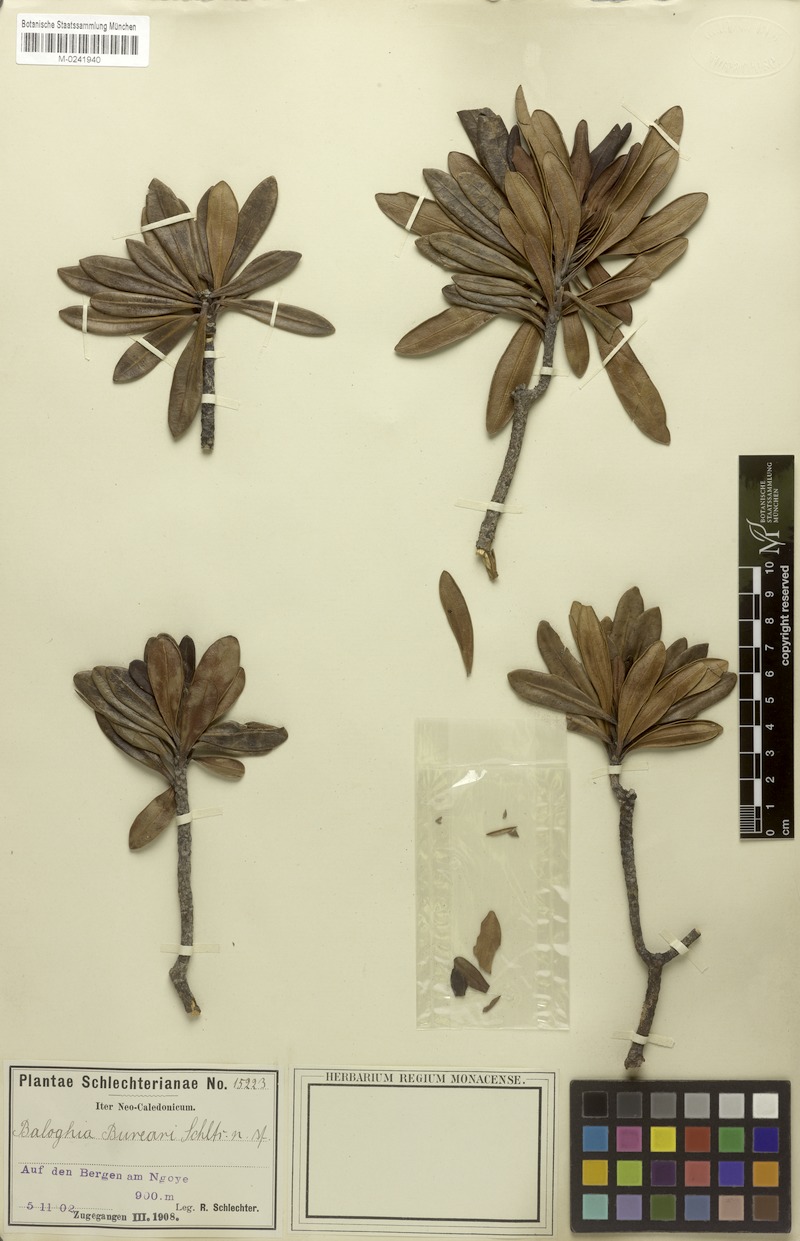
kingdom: Plantae
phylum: Tracheophyta
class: Magnoliopsida
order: Malpighiales
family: Euphorbiaceae
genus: Baloghia
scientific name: Baloghia bureavii
